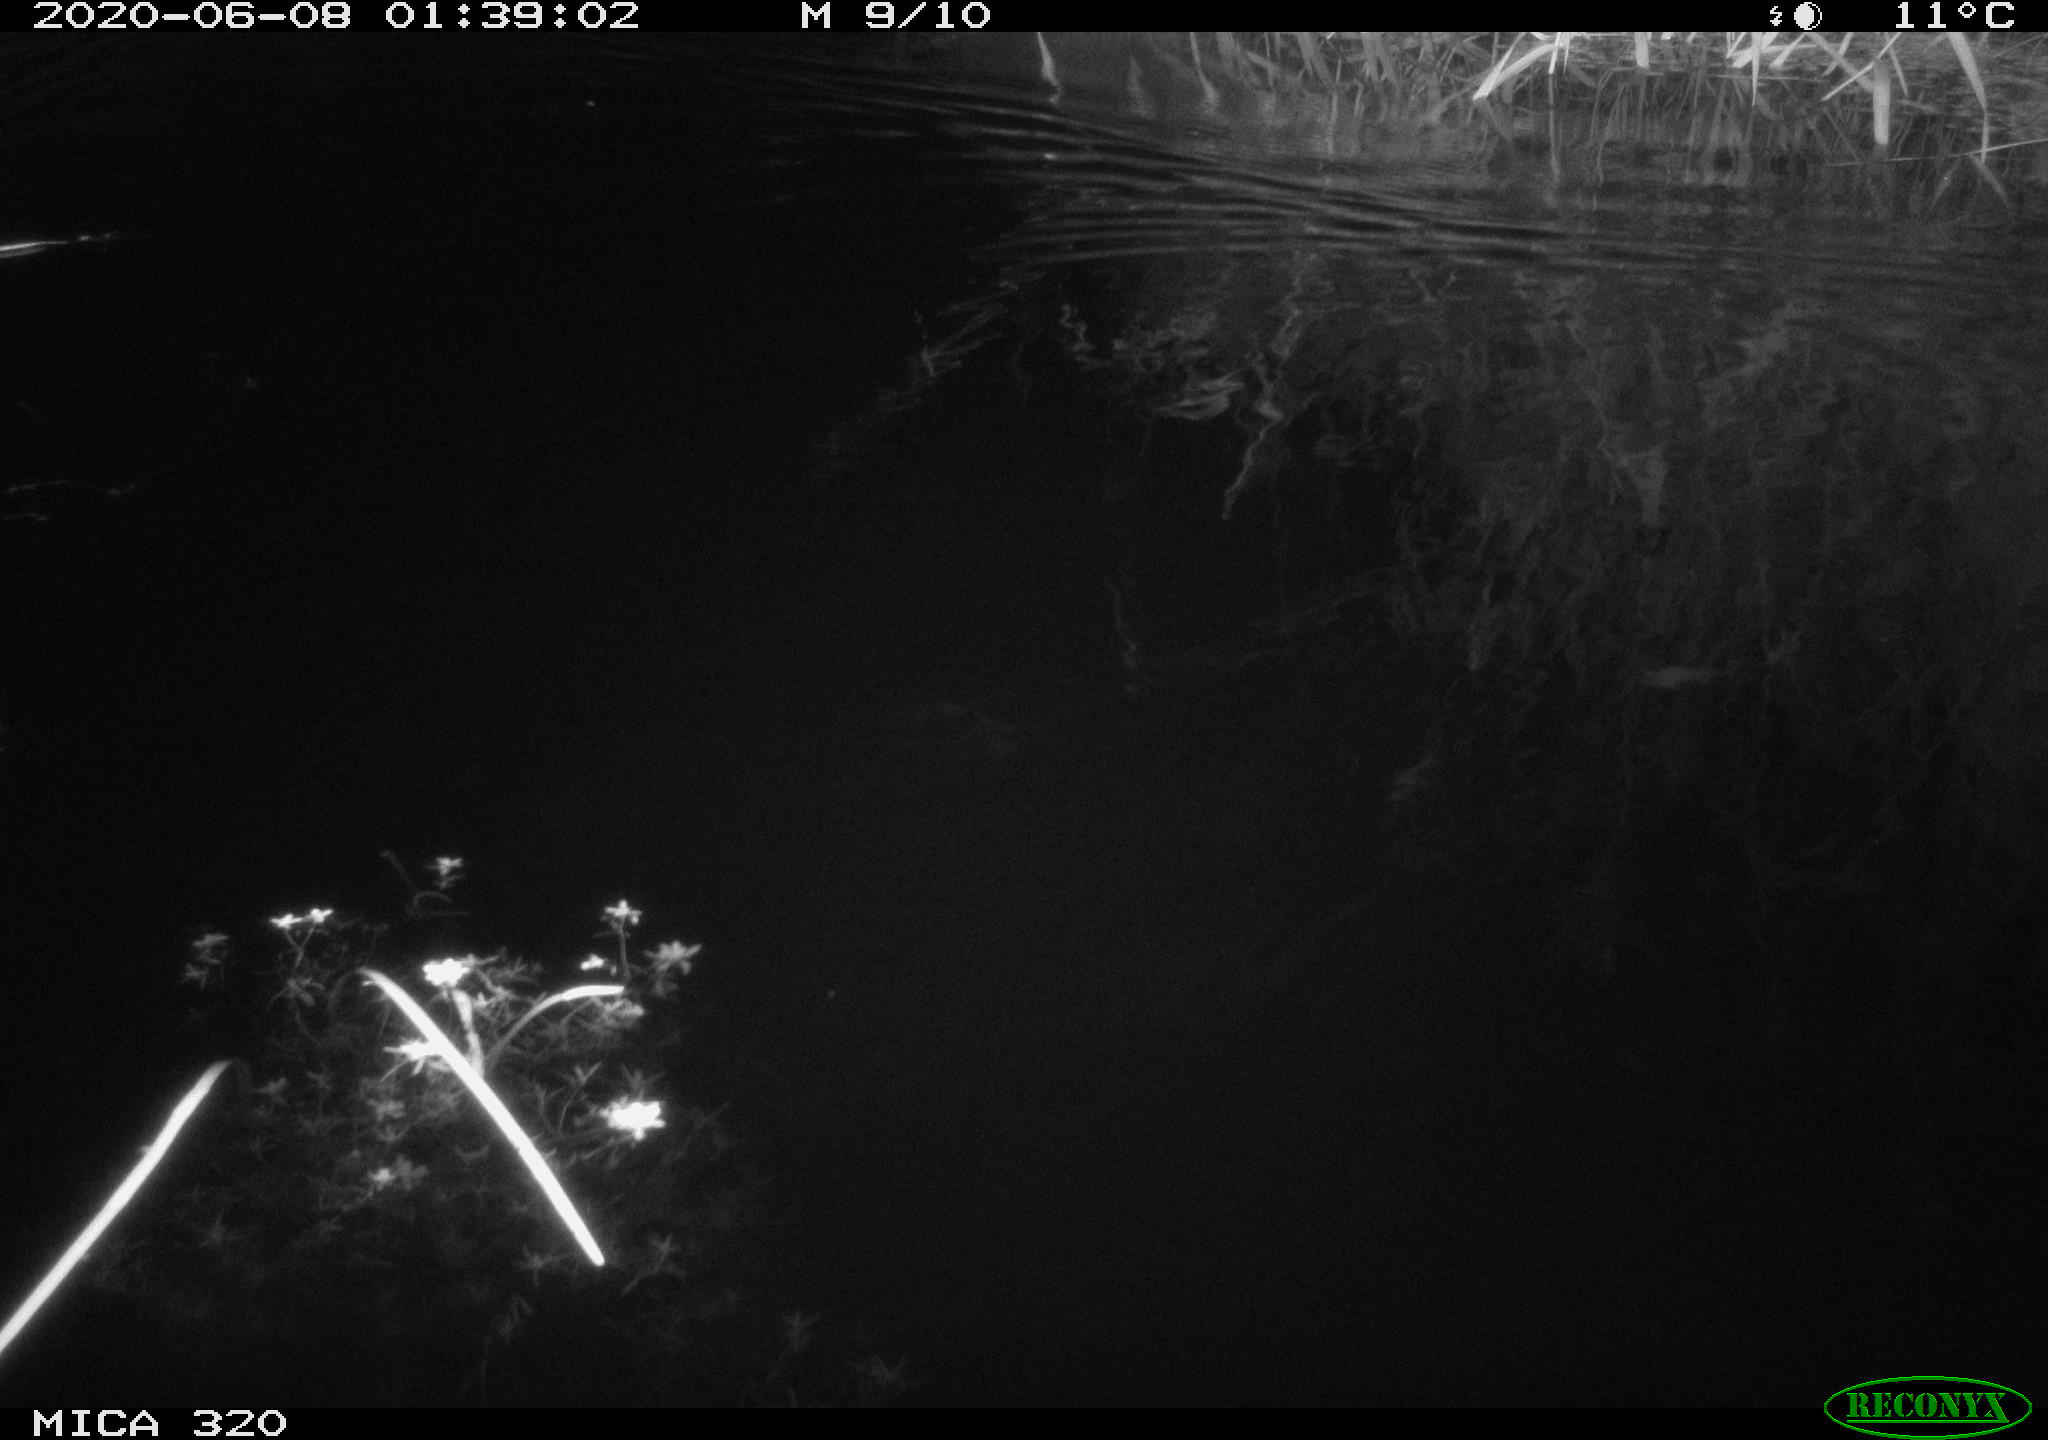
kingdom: Animalia
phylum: Chordata
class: Aves
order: Anseriformes
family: Anatidae
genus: Anas
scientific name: Anas platyrhynchos
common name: Mallard
